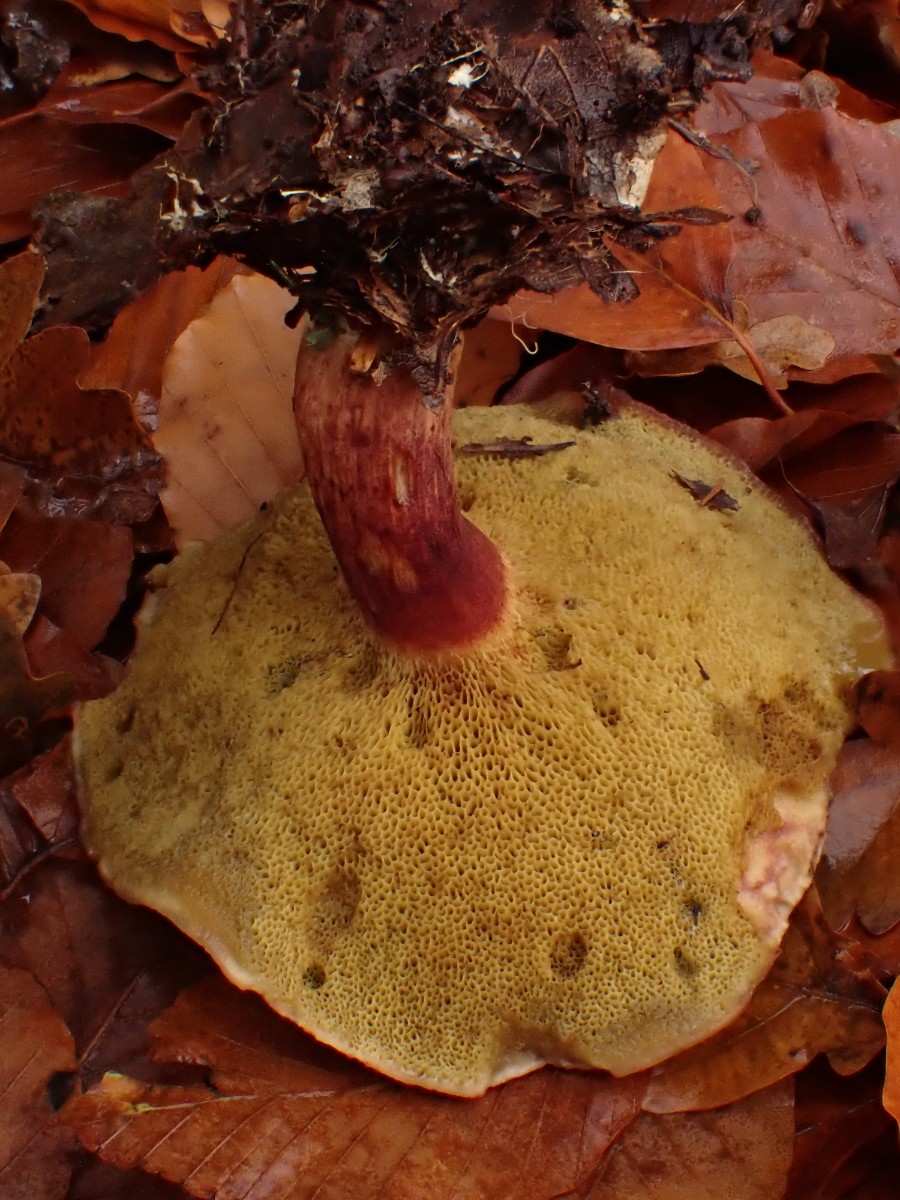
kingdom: Fungi
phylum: Basidiomycota
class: Agaricomycetes
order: Boletales
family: Boletaceae
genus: Xerocomellus
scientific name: Xerocomellus pruinatus
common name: dugget rørhat
